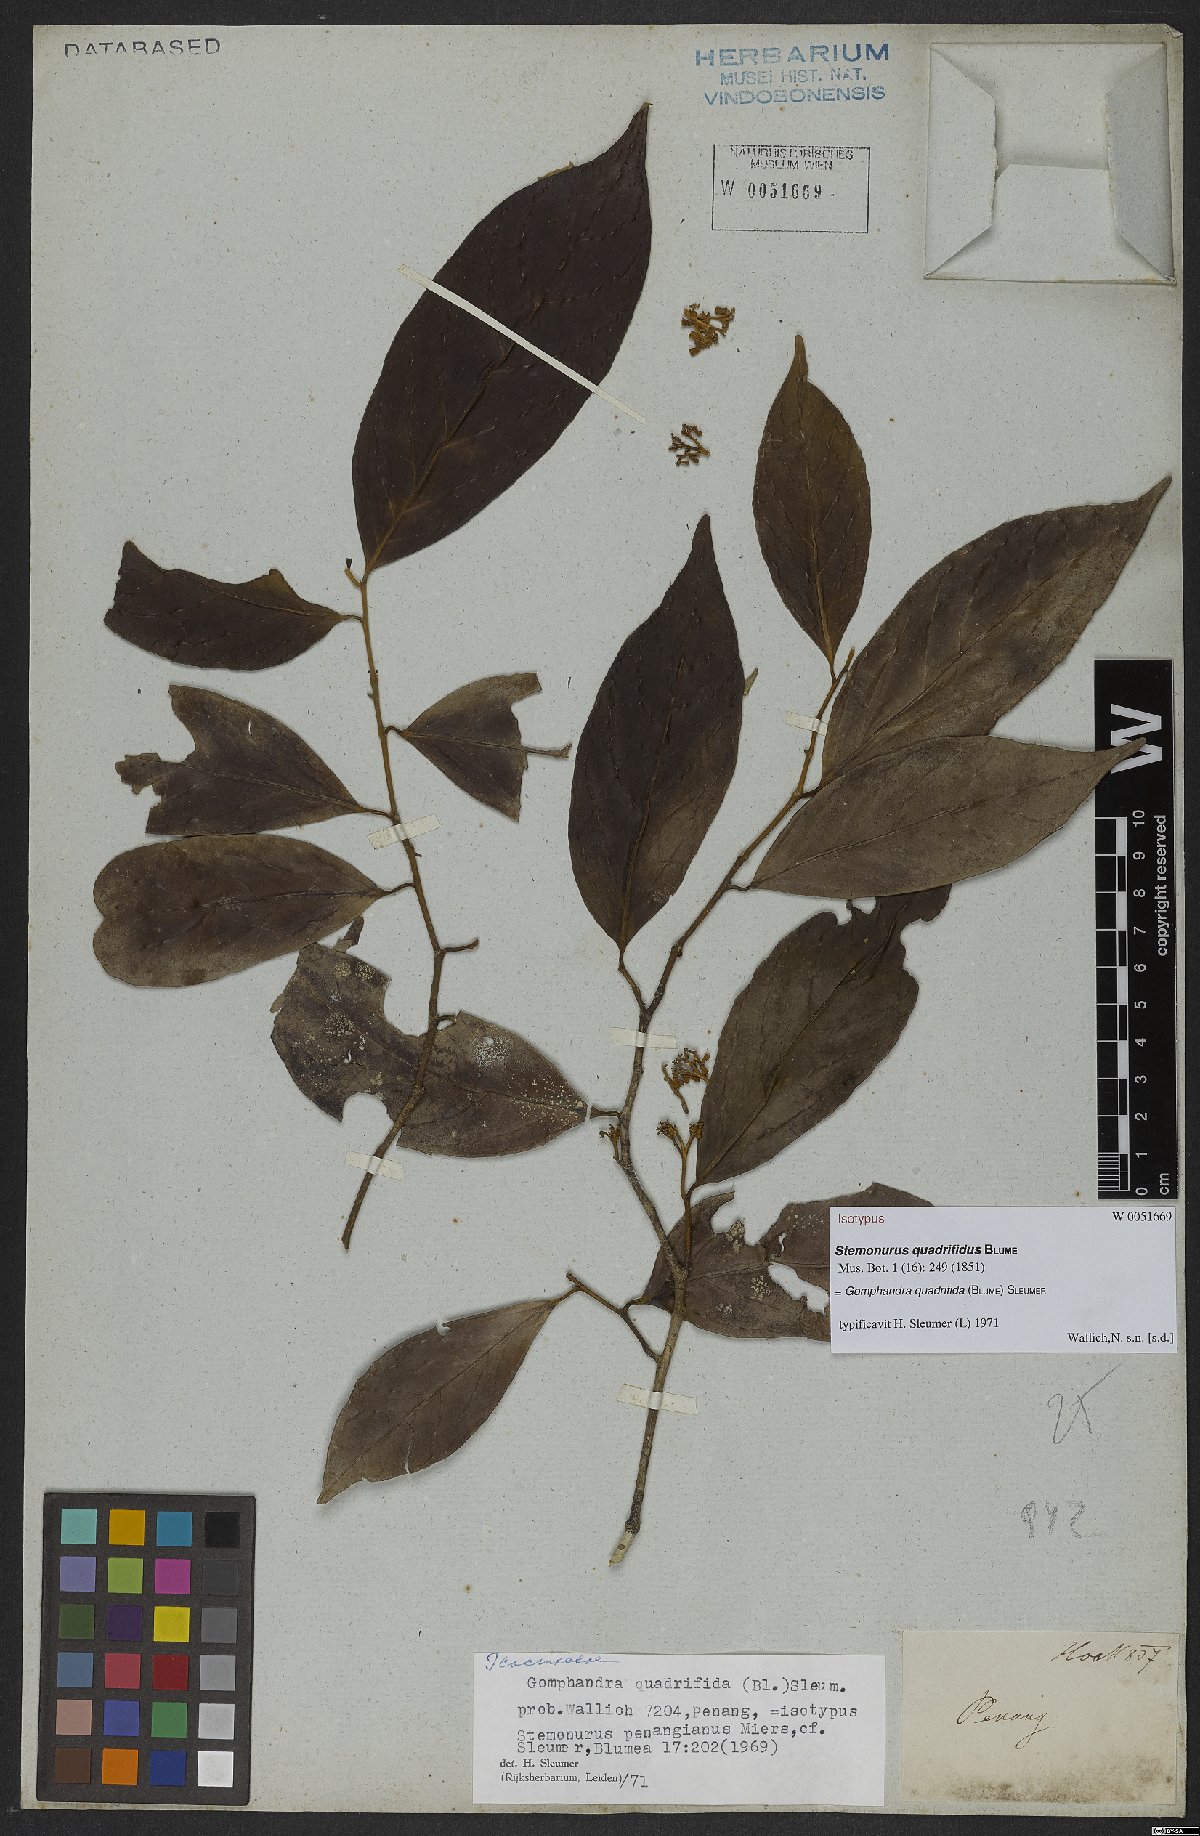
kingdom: Plantae
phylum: Tracheophyta
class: Magnoliopsida
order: Cardiopteridales
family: Stemonuraceae
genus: Gomphandra
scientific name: Gomphandra quadrifida
